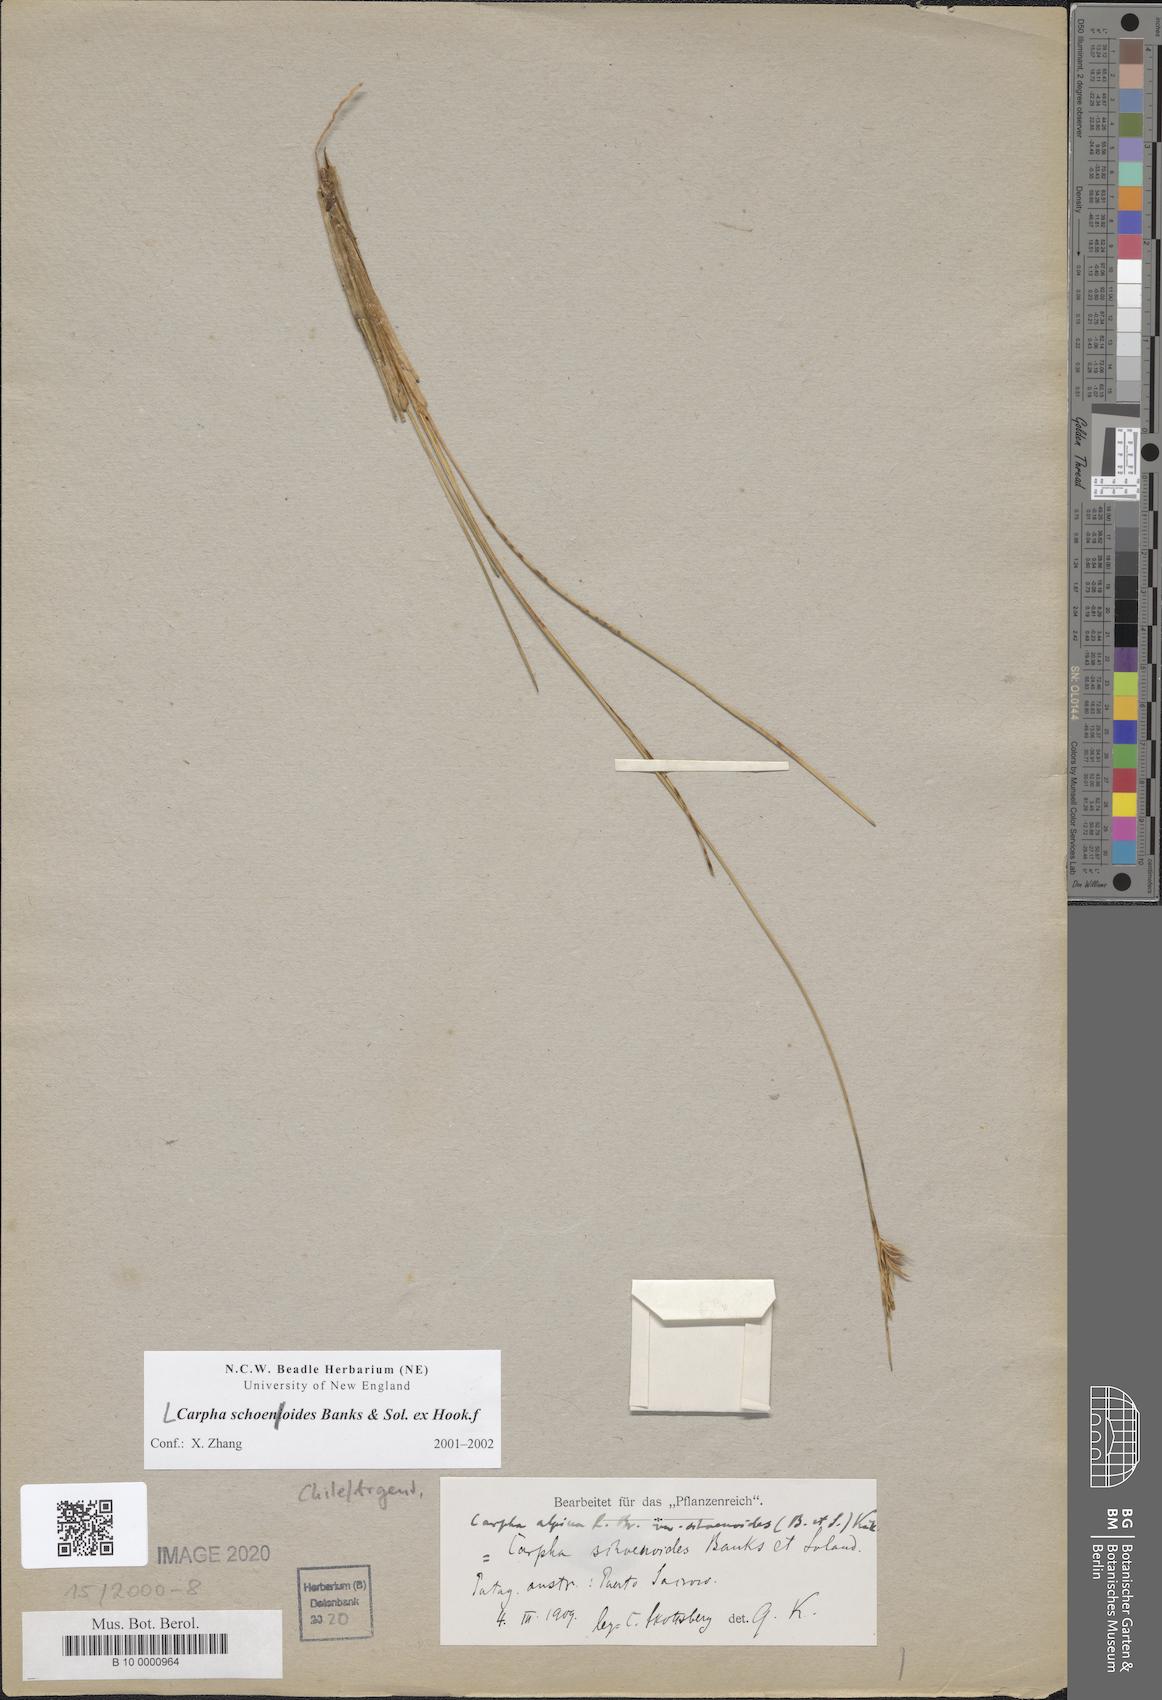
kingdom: Plantae
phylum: Tracheophyta
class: Liliopsida
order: Poales
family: Cyperaceae
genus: Carpha
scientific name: Carpha schoenoides
